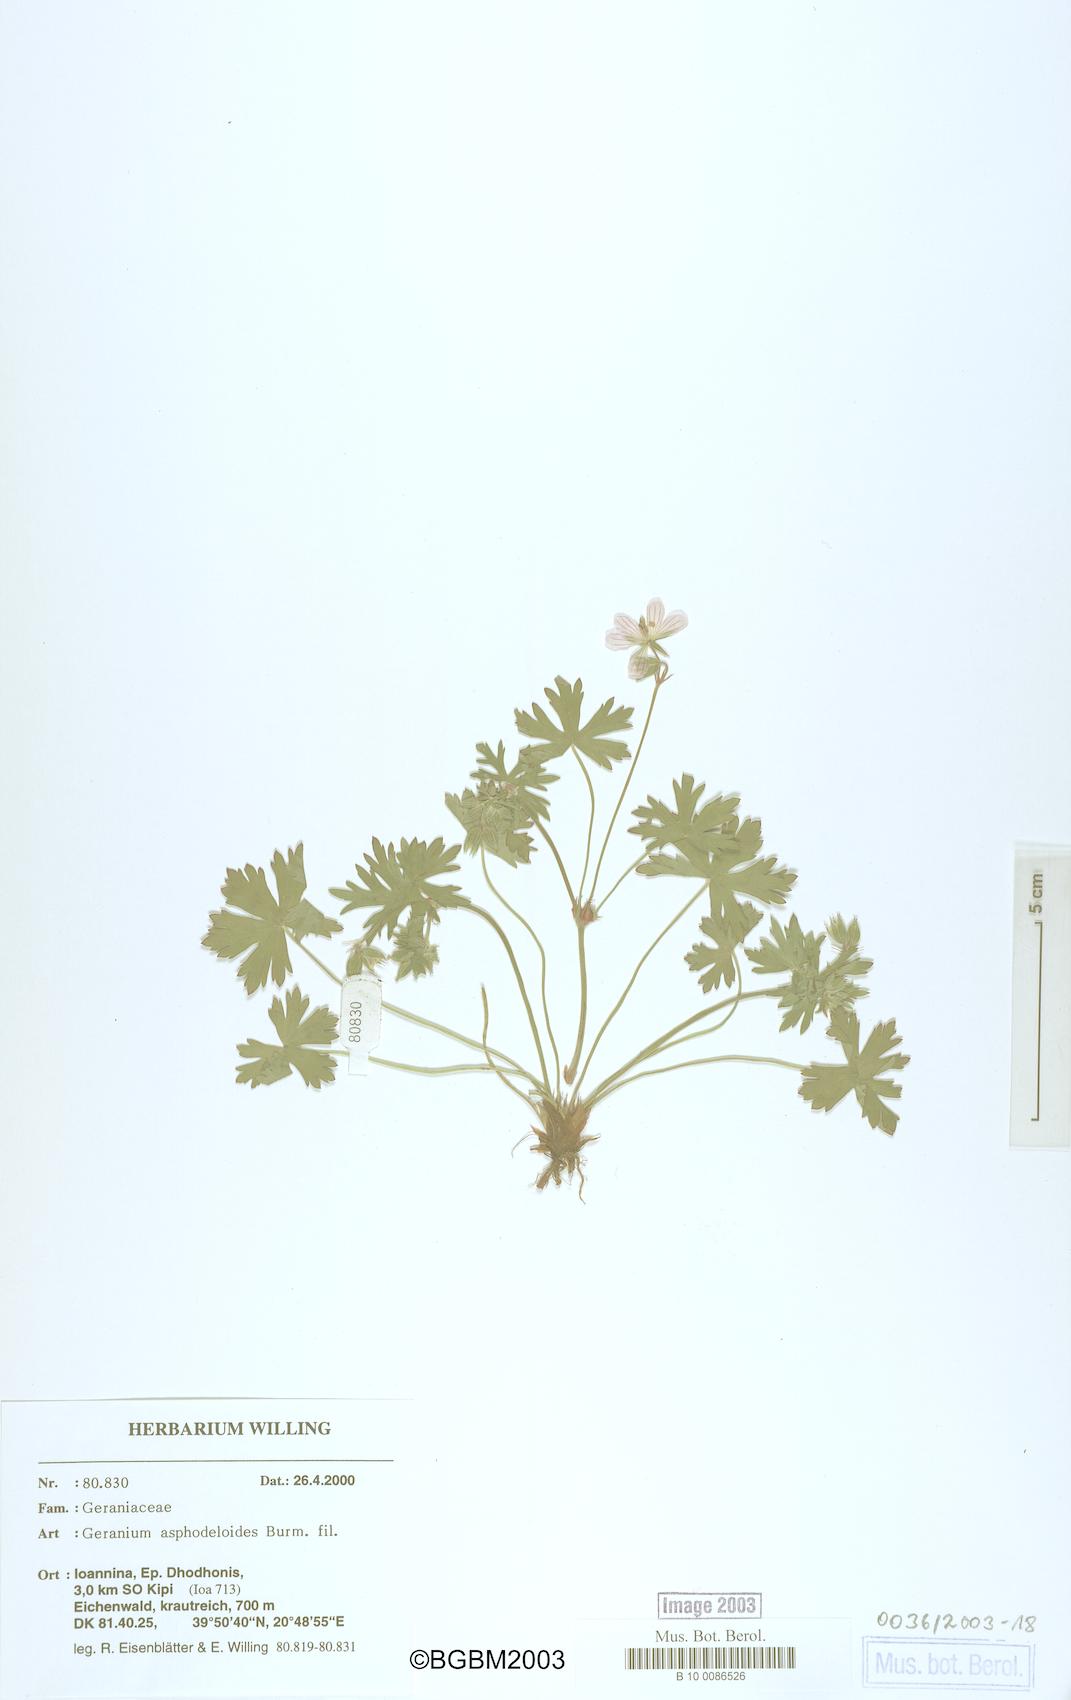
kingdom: Plantae
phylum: Tracheophyta
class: Magnoliopsida
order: Geraniales
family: Geraniaceae
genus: Geranium
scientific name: Geranium asphodeloides
